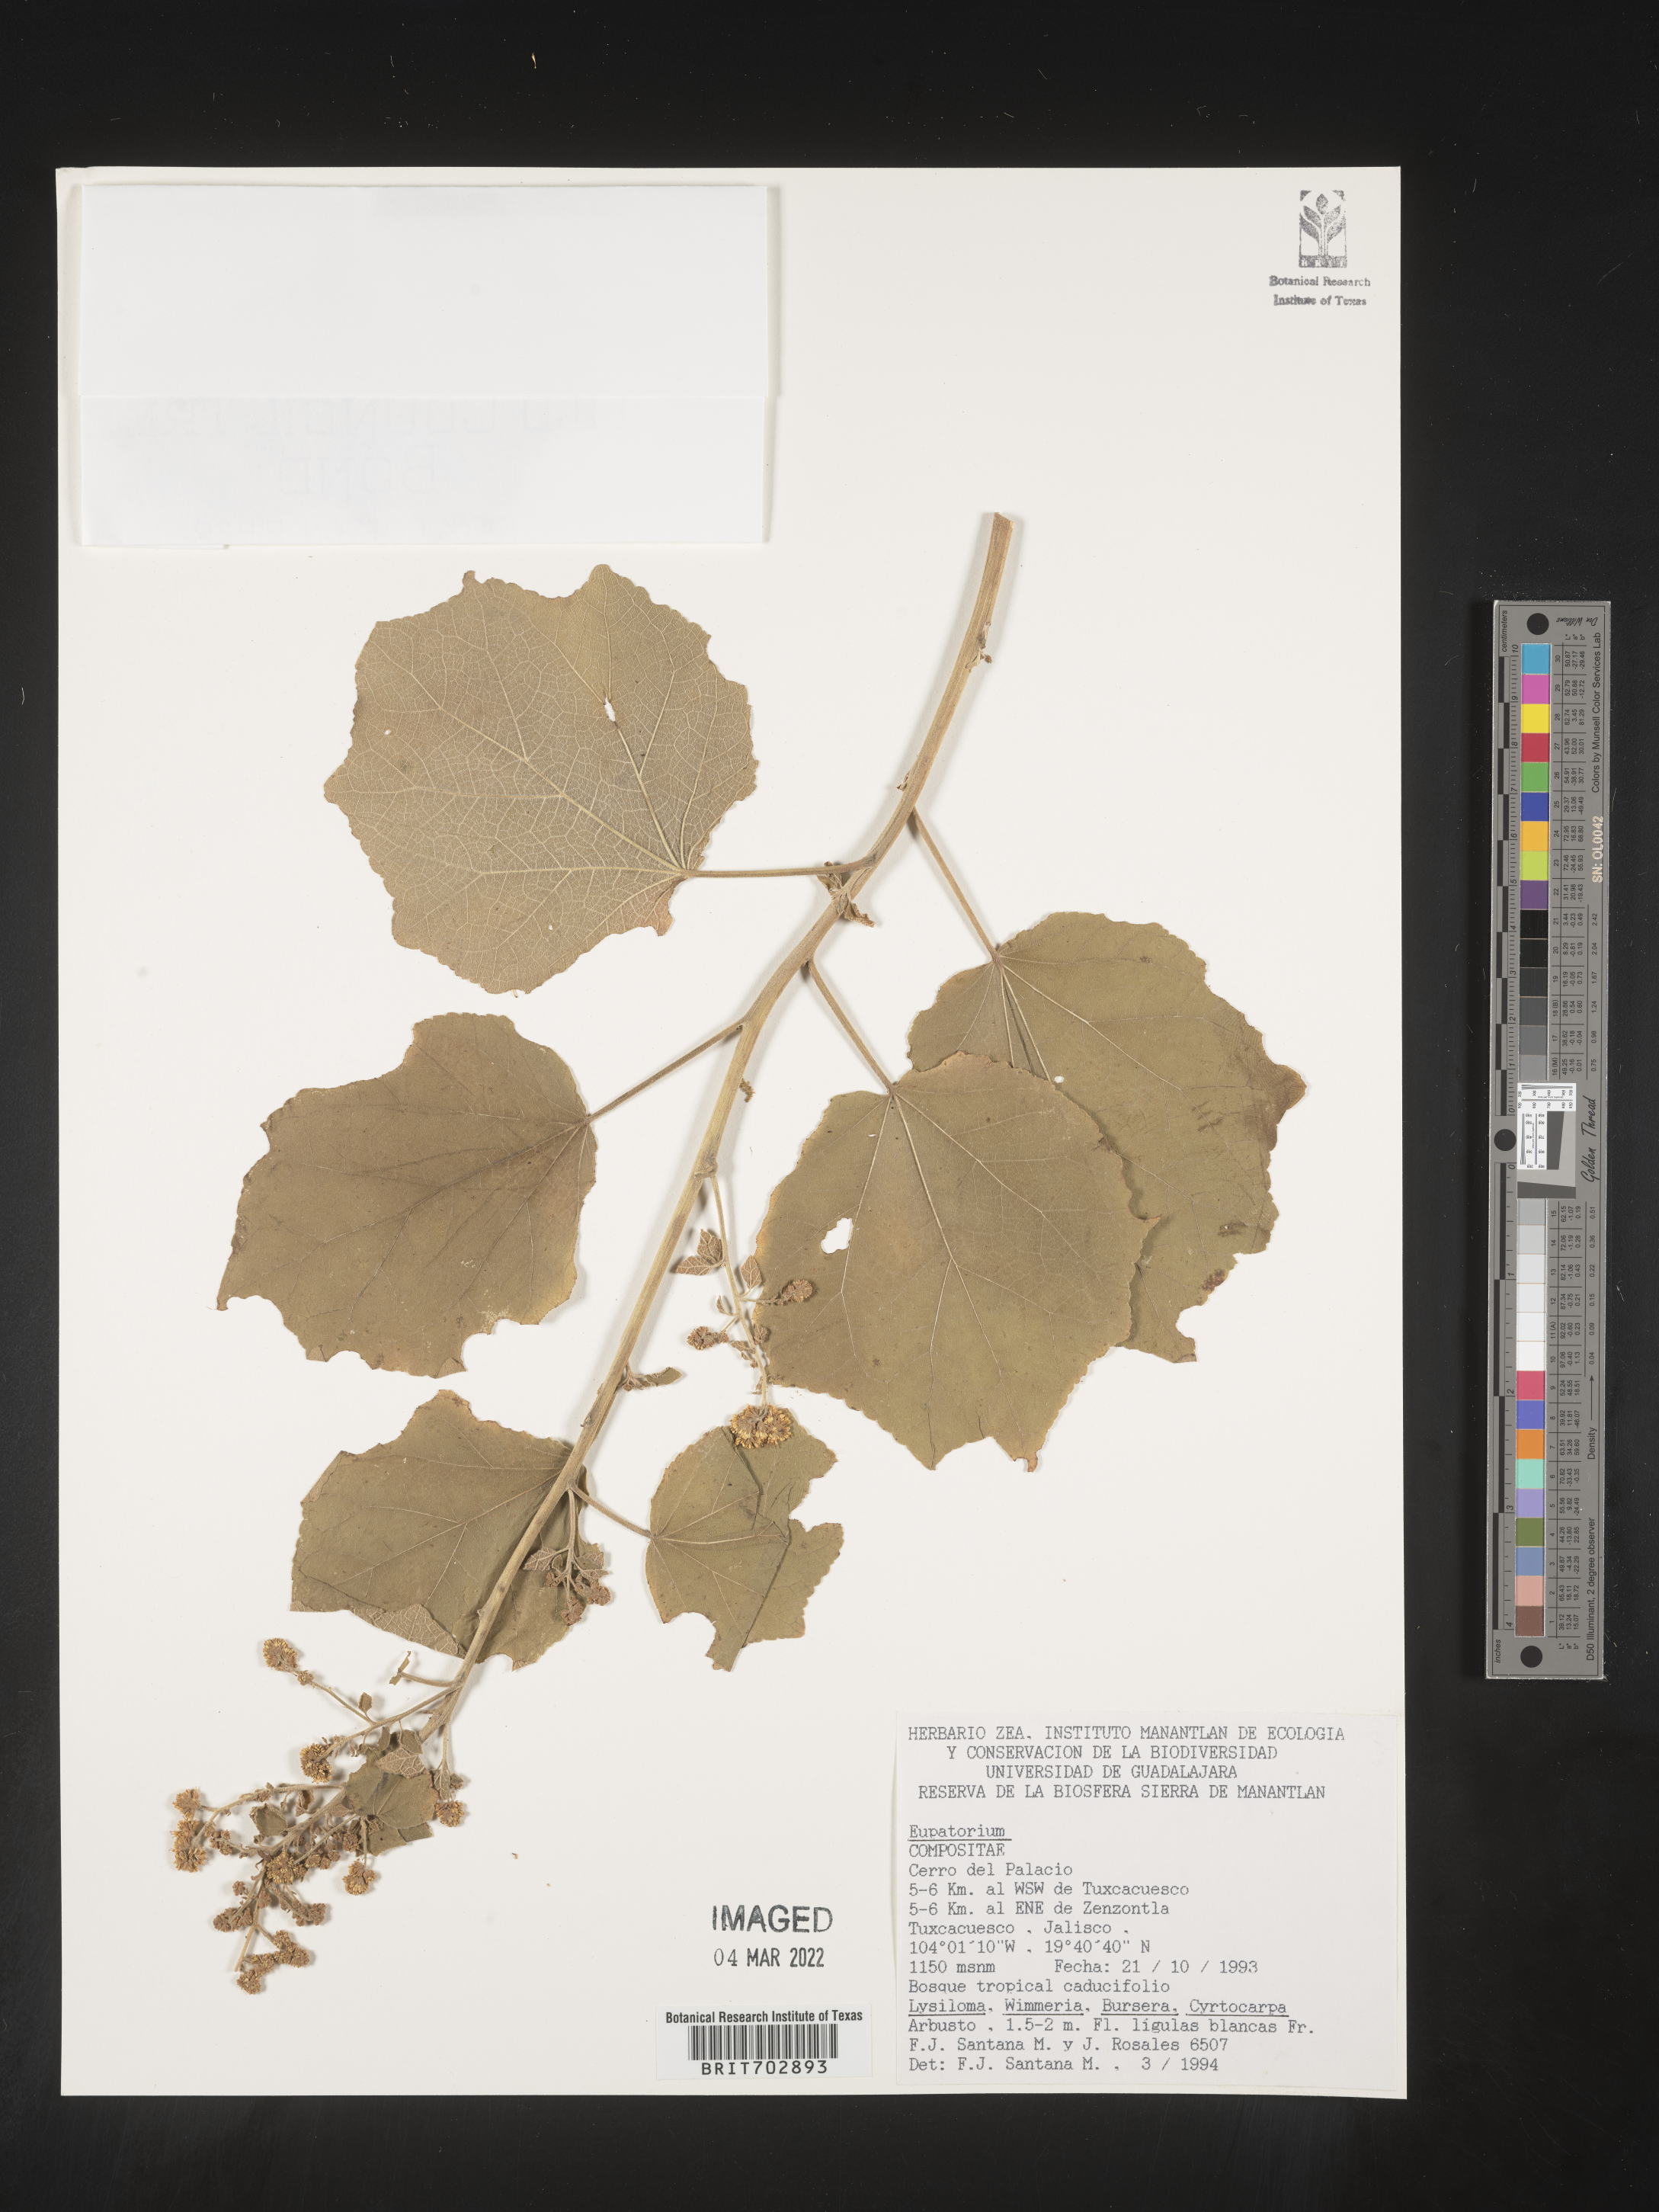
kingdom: Plantae
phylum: Tracheophyta
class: Magnoliopsida
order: Asterales
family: Asteraceae
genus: Eupatorium
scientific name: Eupatorium
